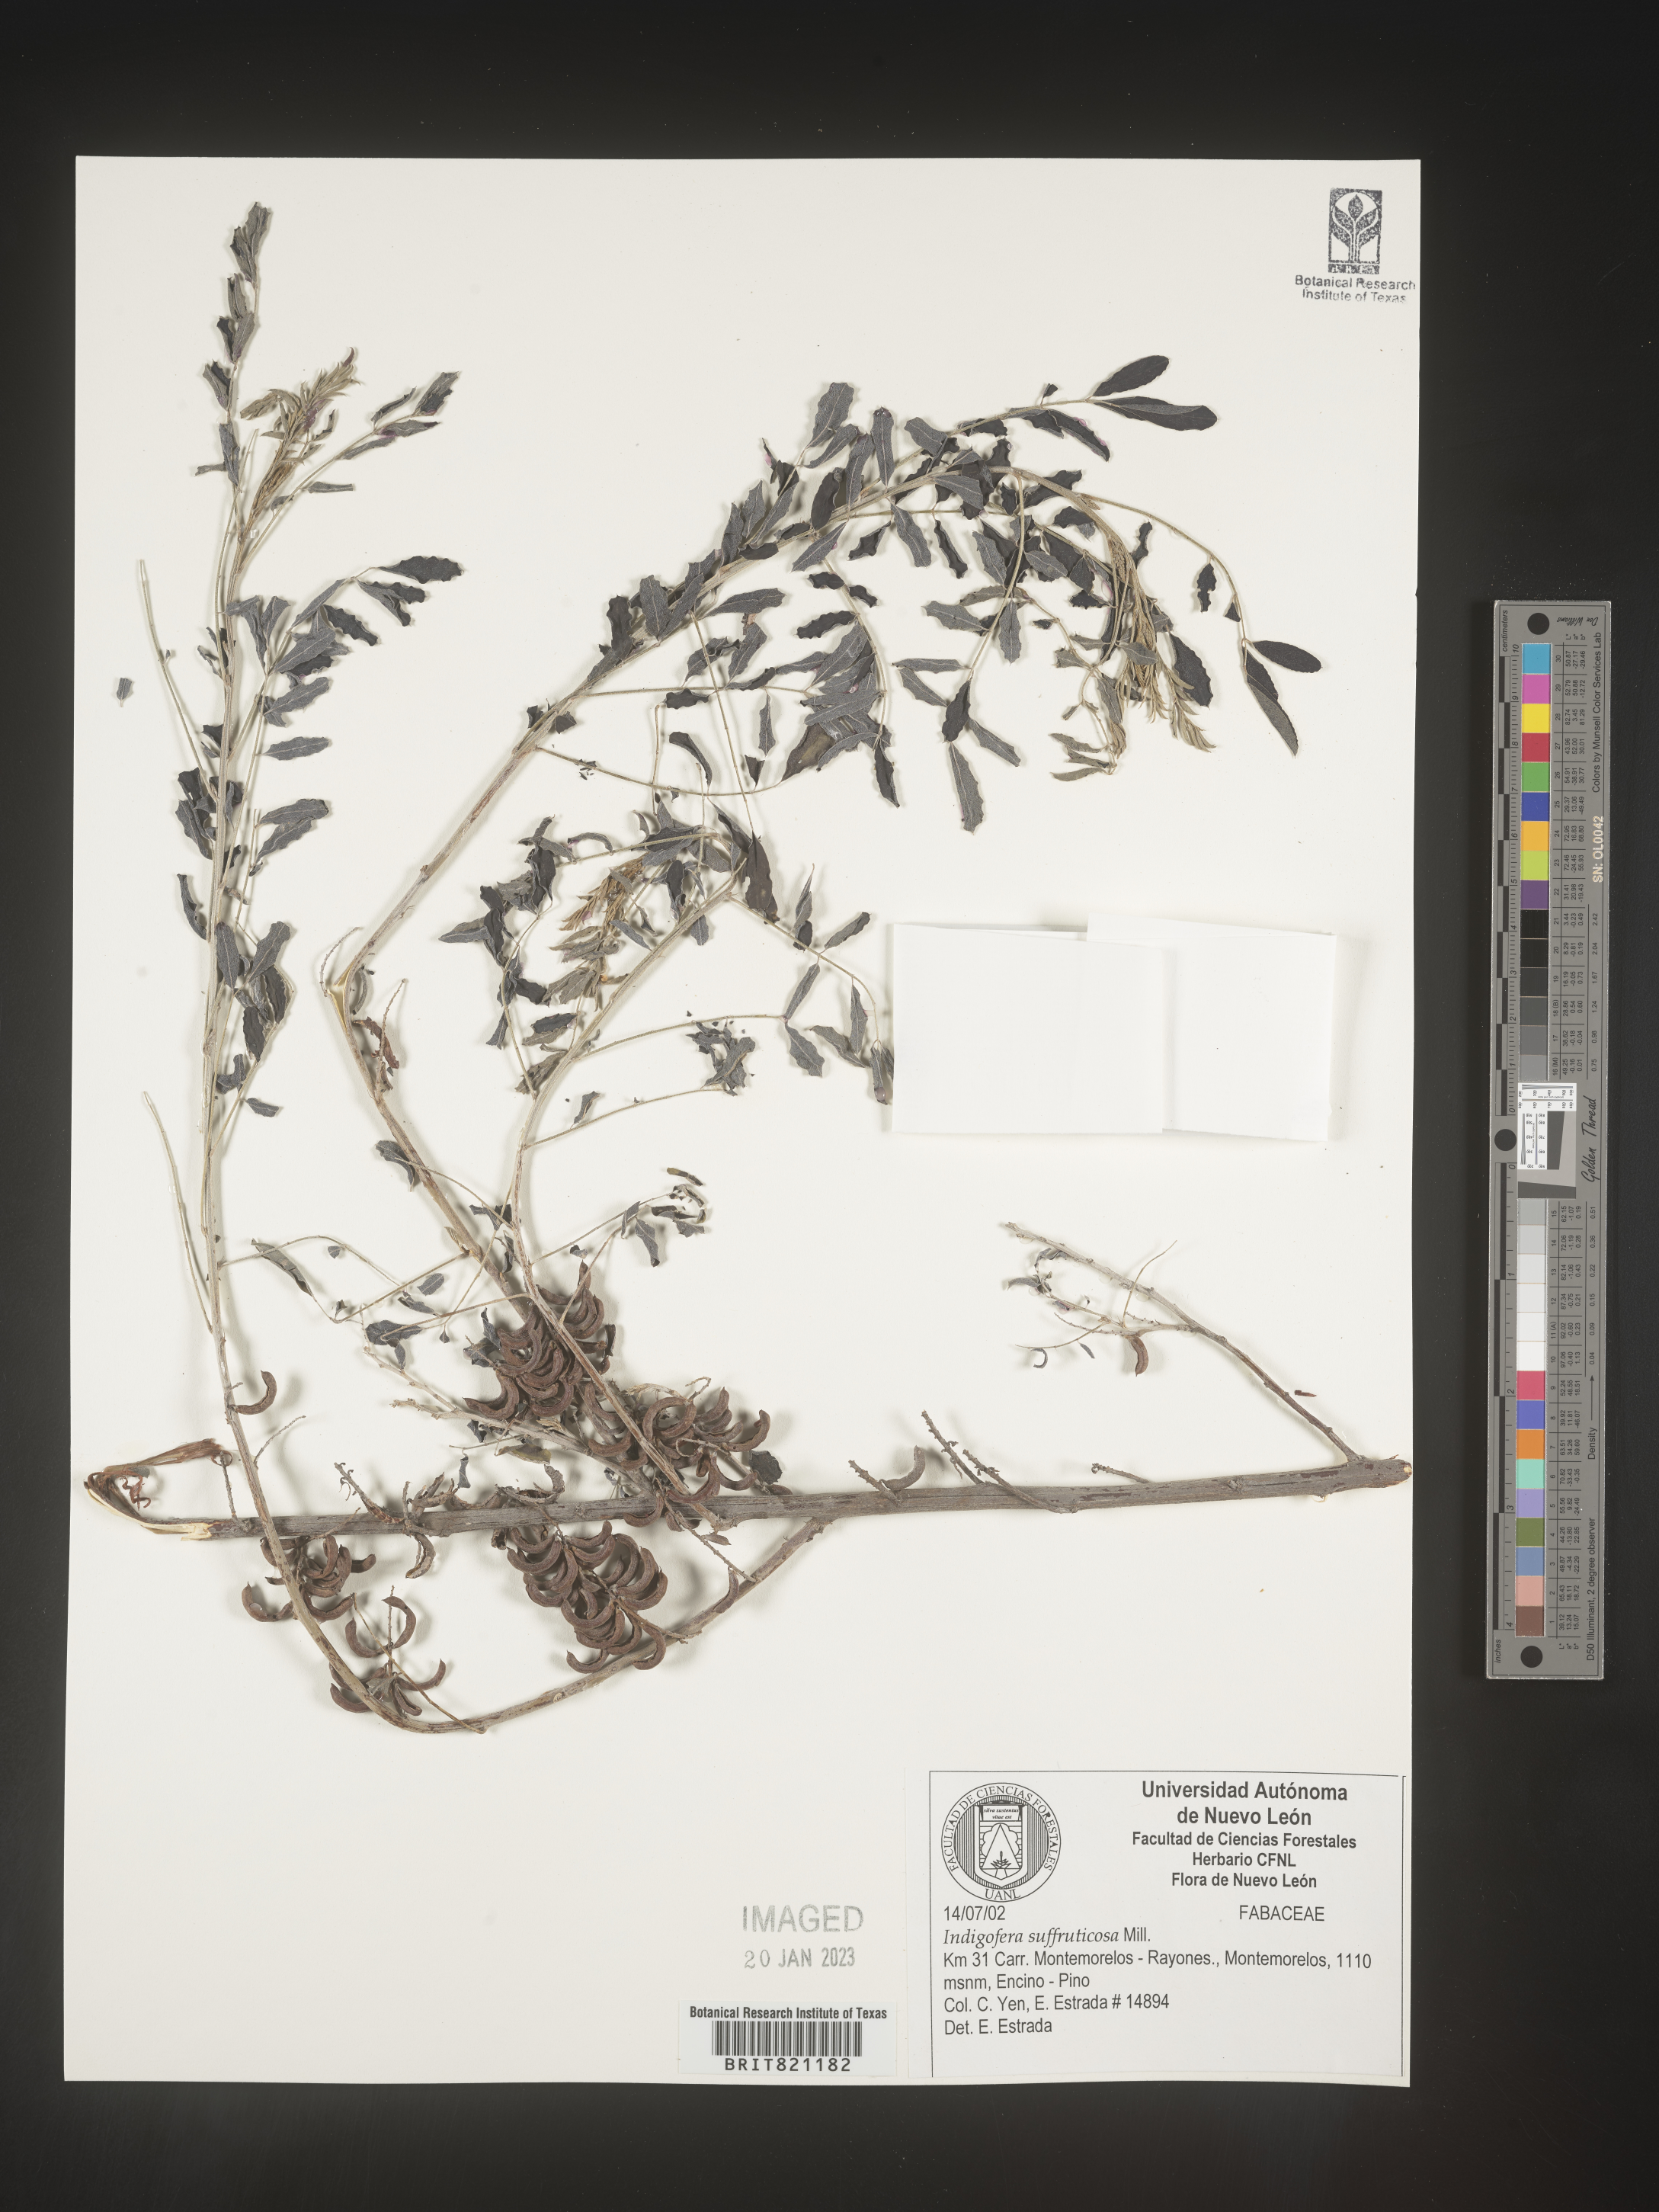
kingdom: Plantae
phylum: Tracheophyta
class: Magnoliopsida
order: Fabales
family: Fabaceae
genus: Indigofera
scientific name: Indigofera
